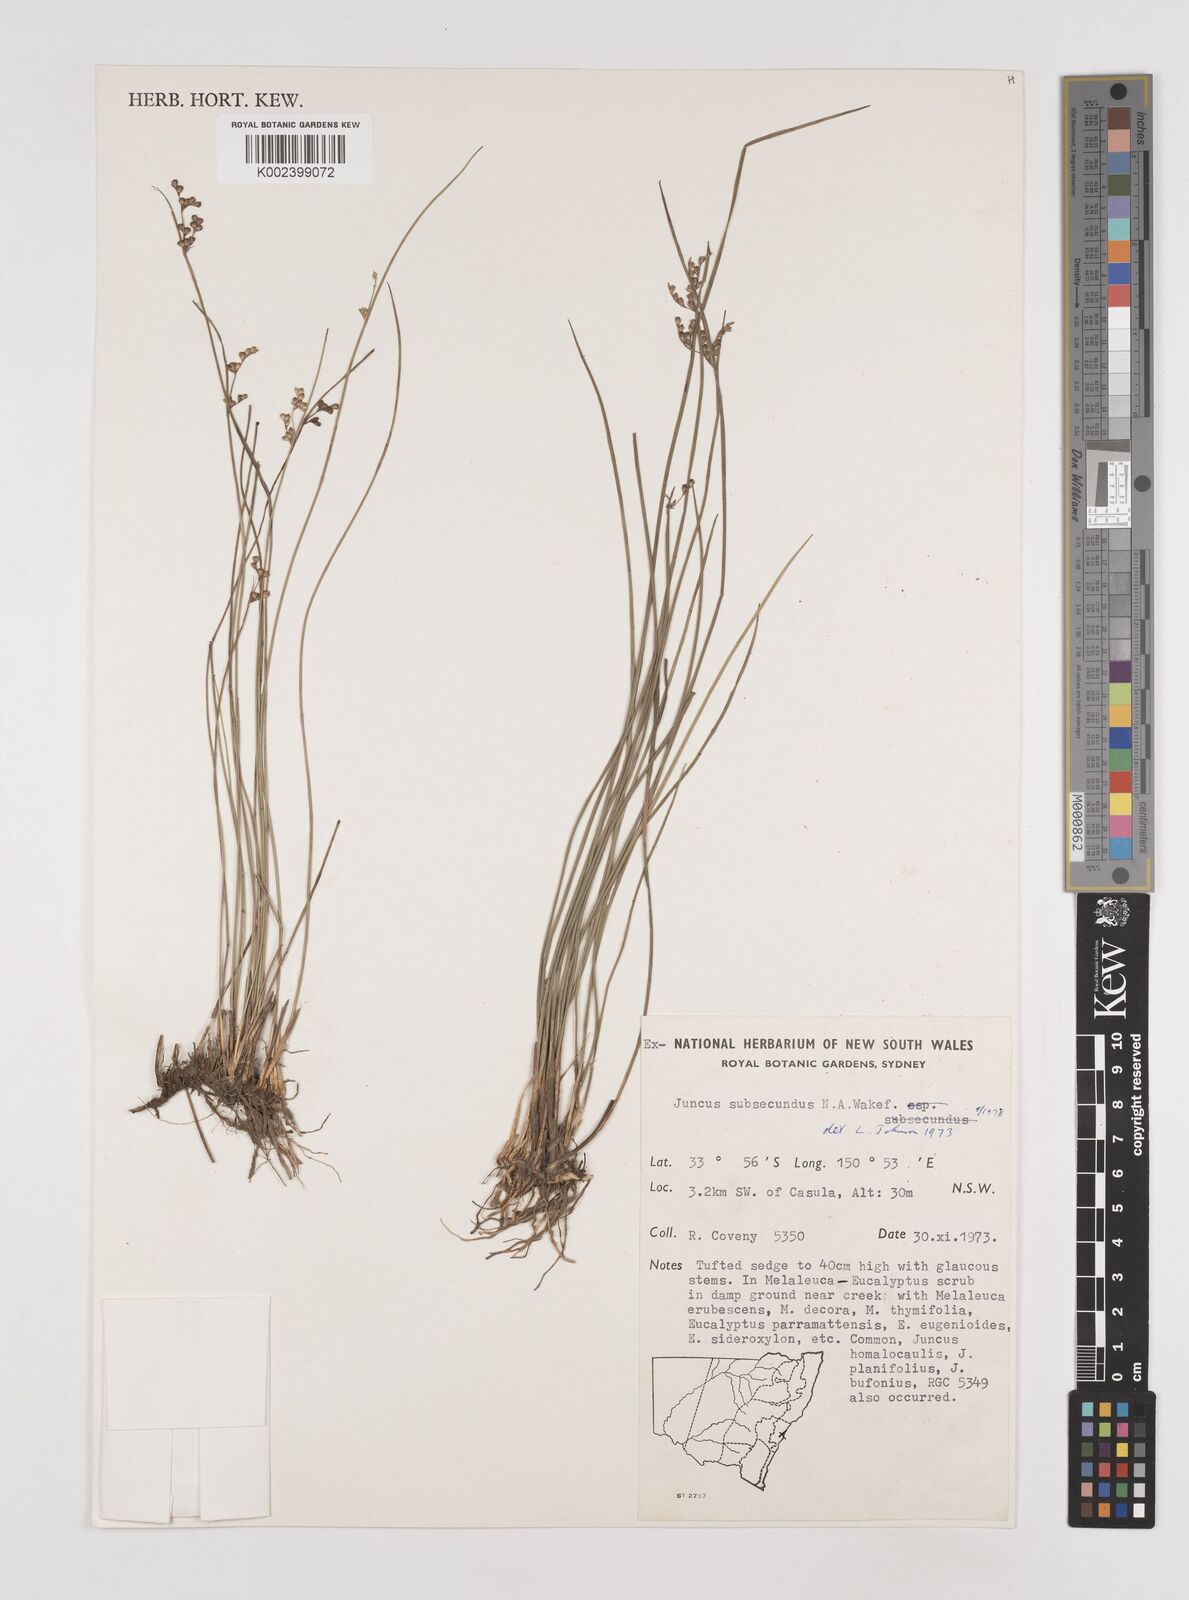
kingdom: Plantae
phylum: Tracheophyta
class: Liliopsida
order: Poales
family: Juncaceae
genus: Juncus
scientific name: Juncus subsecundus
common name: Fingered rush
